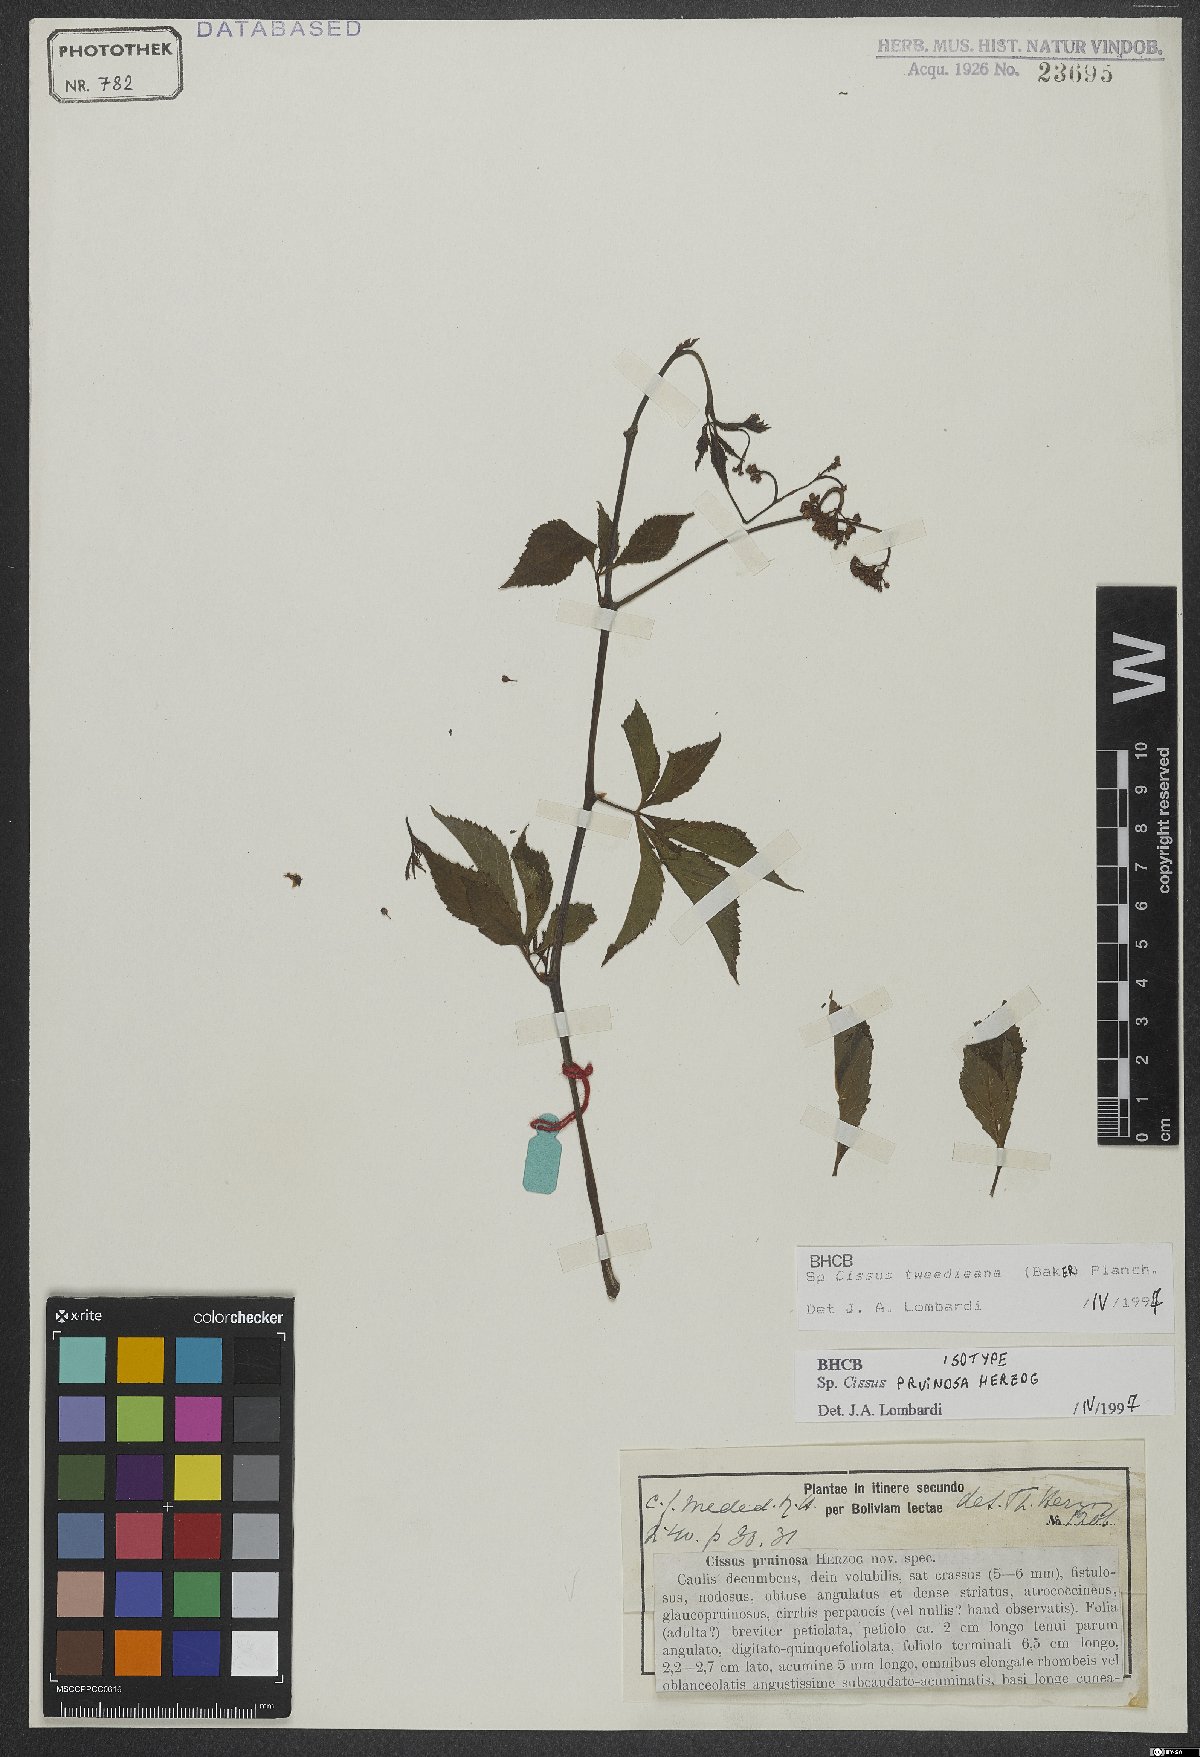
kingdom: Plantae
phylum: Tracheophyta
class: Magnoliopsida
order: Vitales
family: Vitaceae
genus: Clematicissus
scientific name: Clematicissus tweedieana
